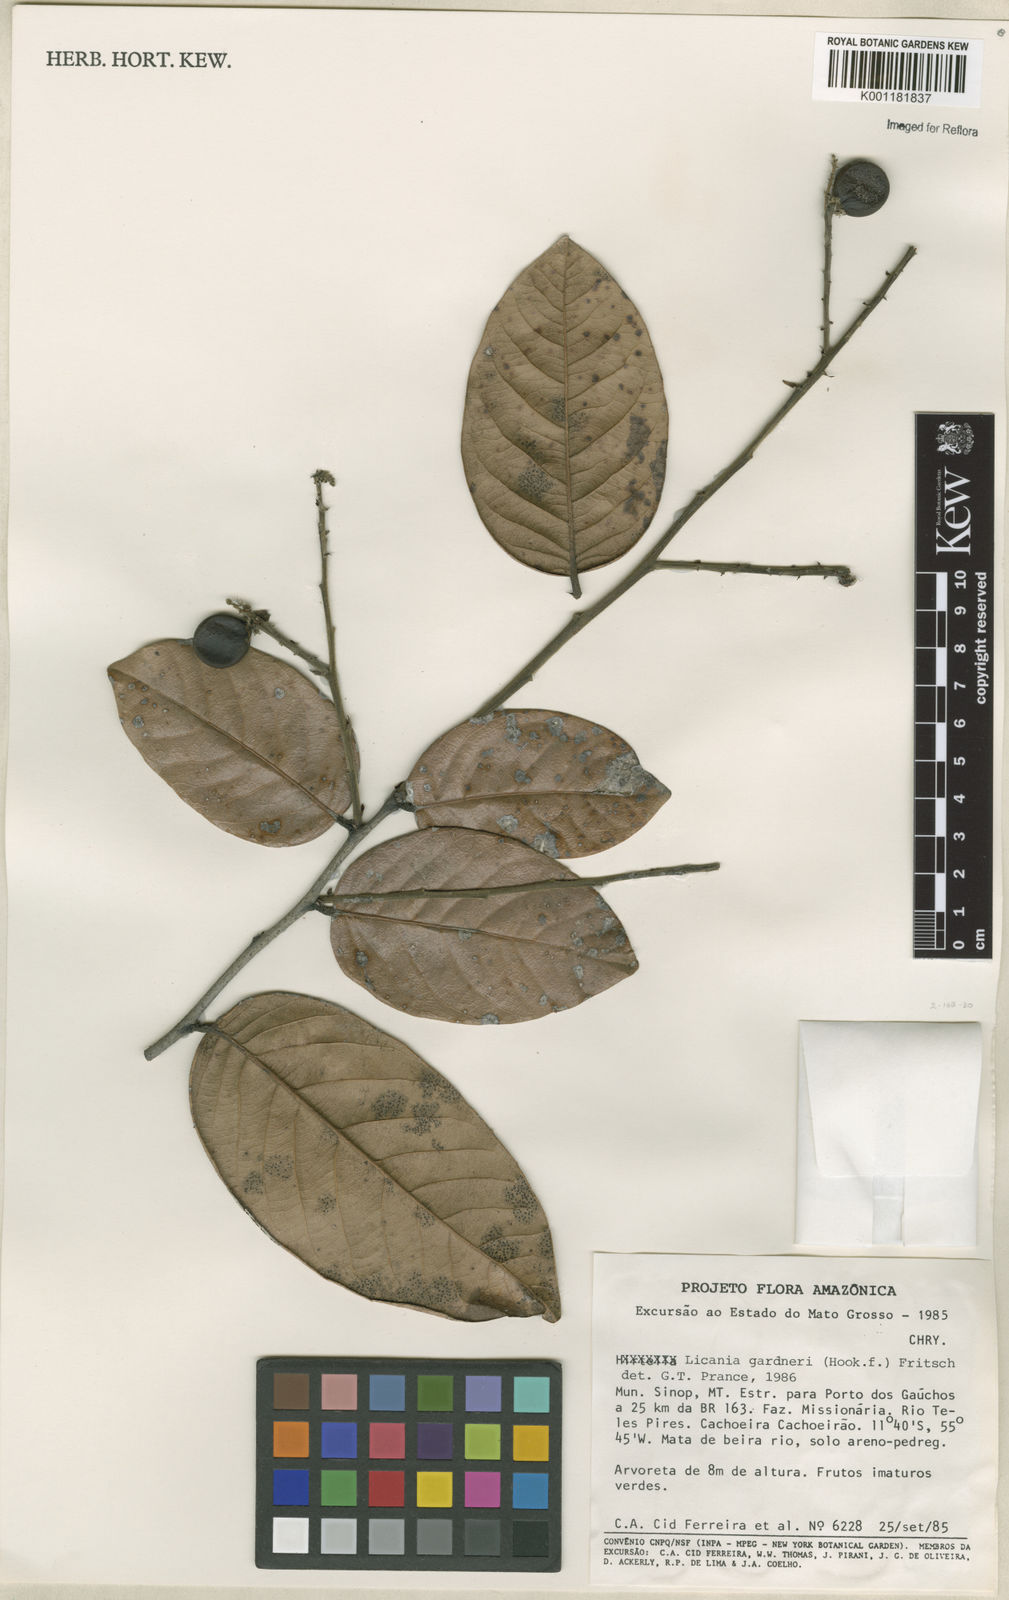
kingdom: Plantae
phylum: Tracheophyta
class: Magnoliopsida
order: Malpighiales
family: Chrysobalanaceae
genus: Leptobalanus
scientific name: Leptobalanus gardneri
